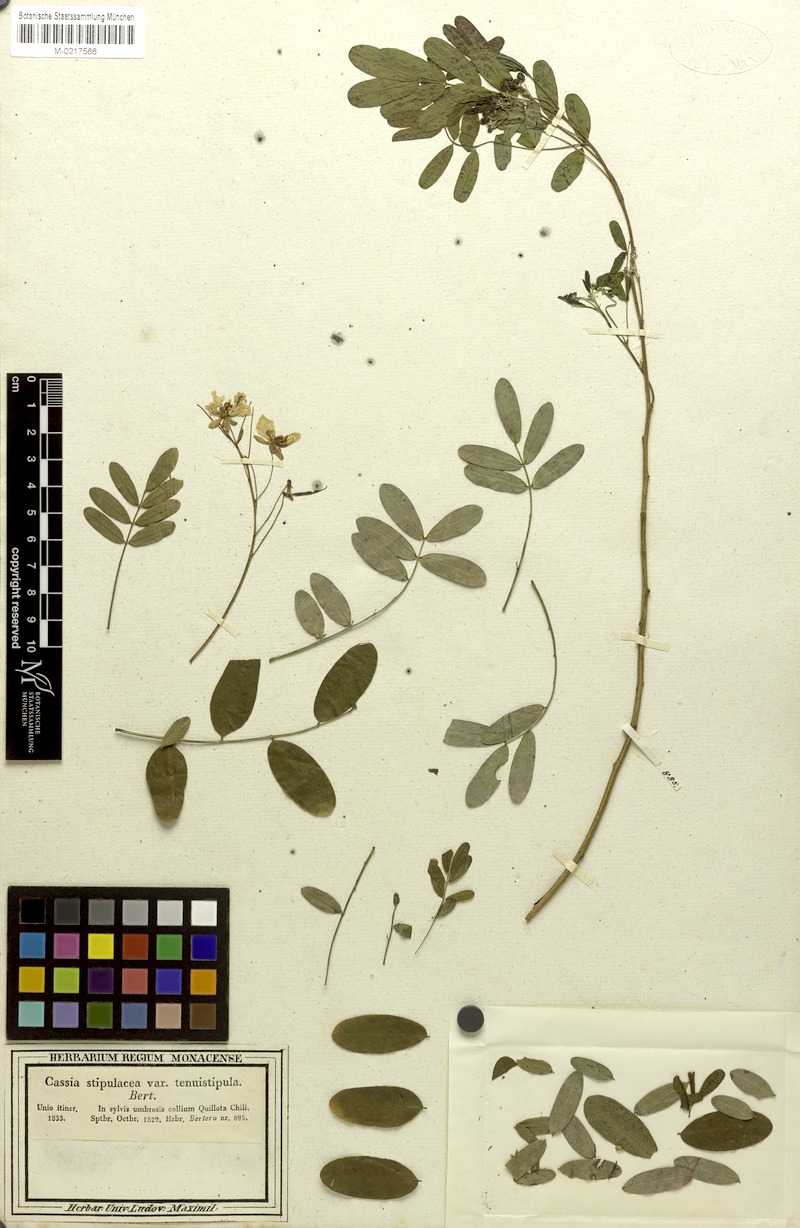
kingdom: Plantae
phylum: Tracheophyta
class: Magnoliopsida
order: Fabales
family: Fabaceae
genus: Senna
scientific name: Senna cruckshanksii
